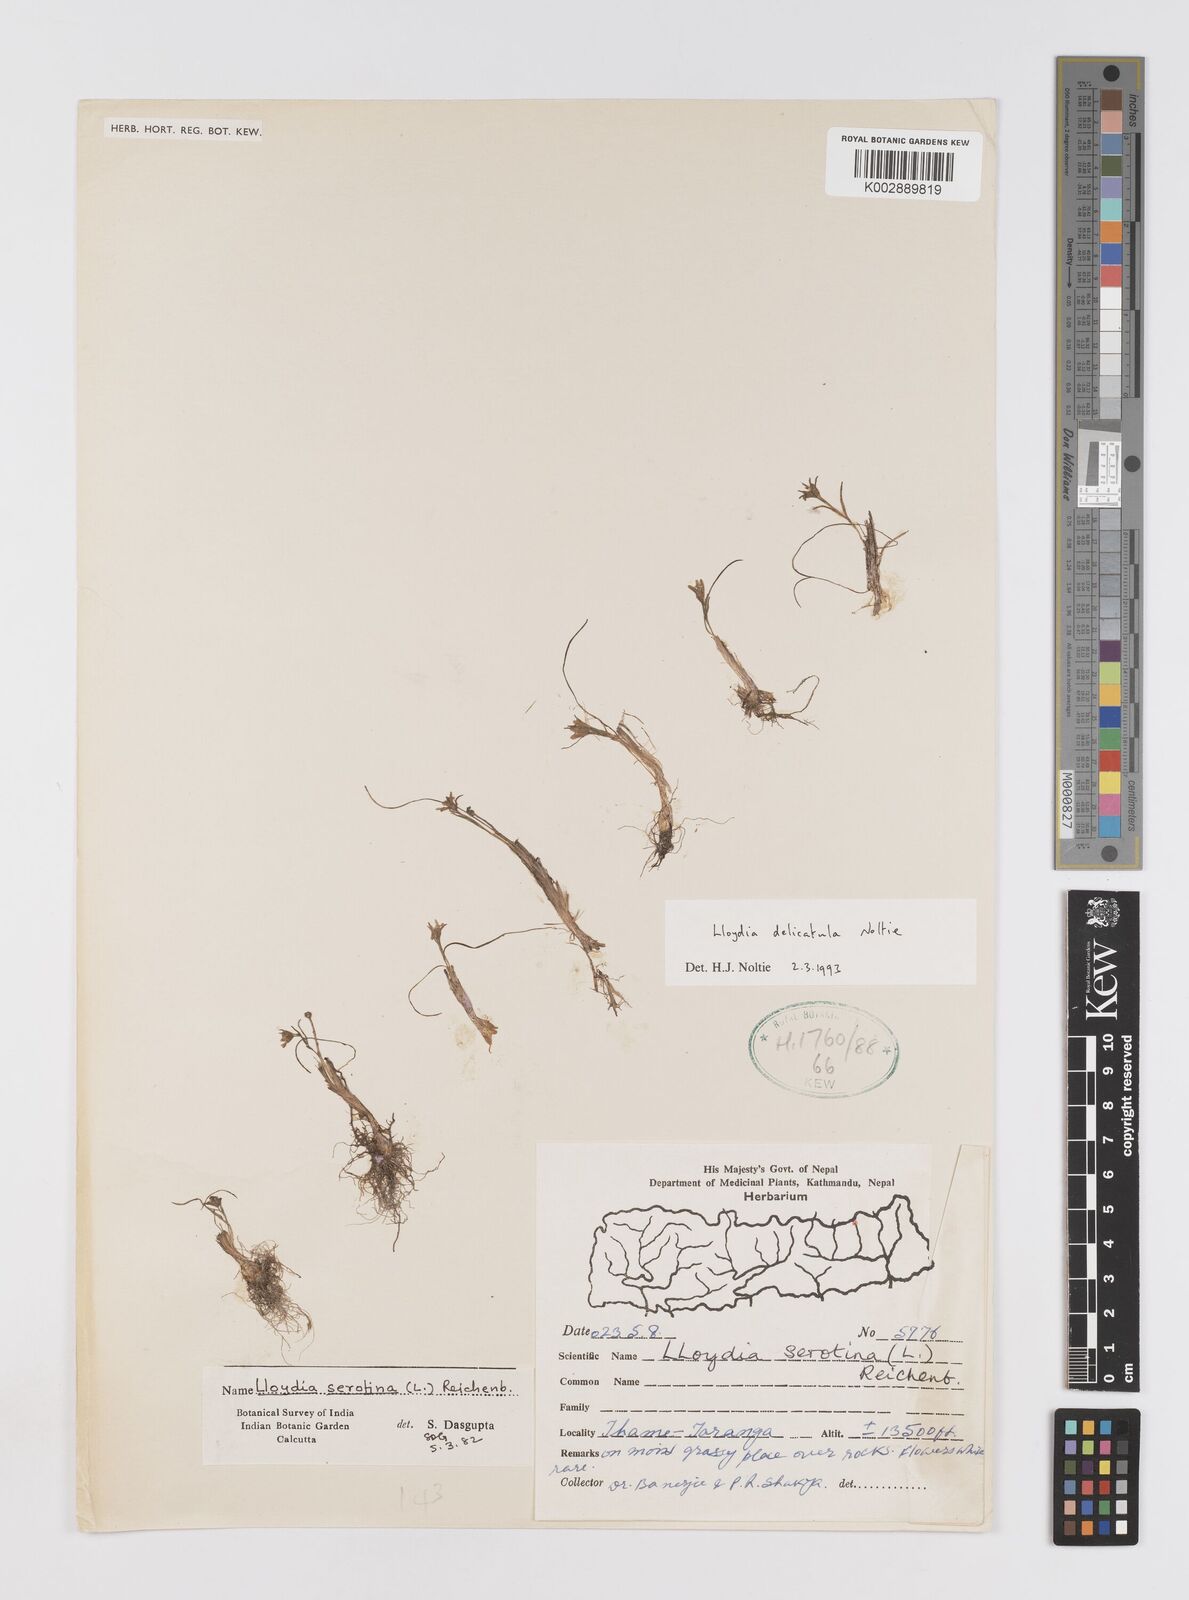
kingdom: Plantae
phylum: Tracheophyta
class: Liliopsida
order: Liliales
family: Liliaceae
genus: Gagea
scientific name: Gagea serotina
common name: Snowdon lily
